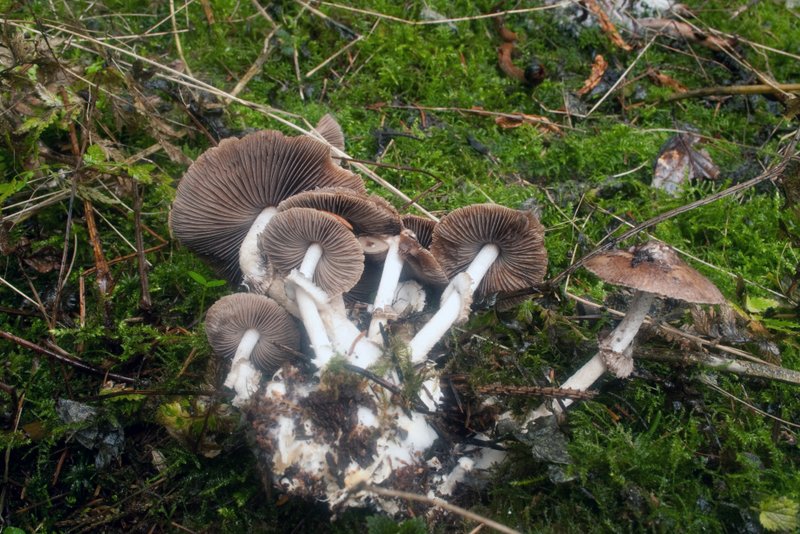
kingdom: Fungi
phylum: Basidiomycota
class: Agaricomycetes
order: Agaricales
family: Psathyrellaceae
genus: Psathyrella
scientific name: Psathyrella caput-medusae
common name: medusa-mørkhat
